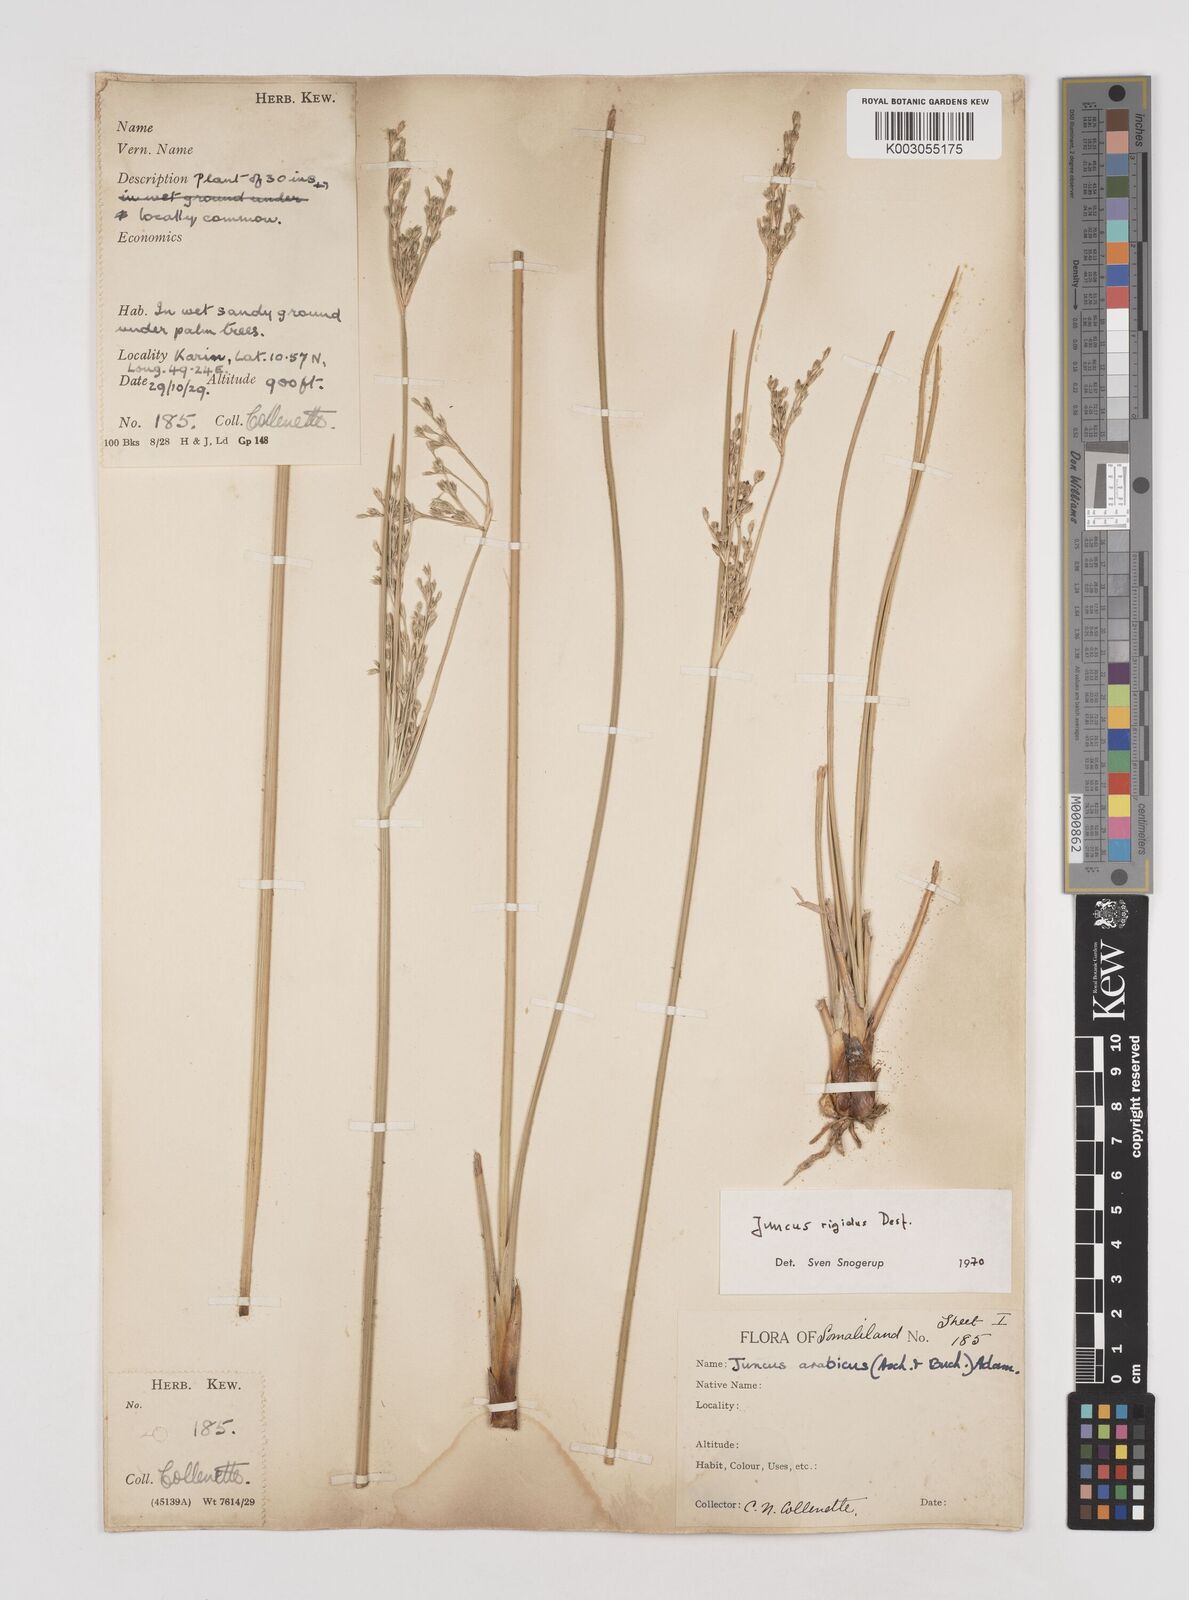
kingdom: Plantae
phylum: Tracheophyta
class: Liliopsida
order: Poales
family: Juncaceae
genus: Juncus
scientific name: Juncus rigidus
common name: Hard sea rush
